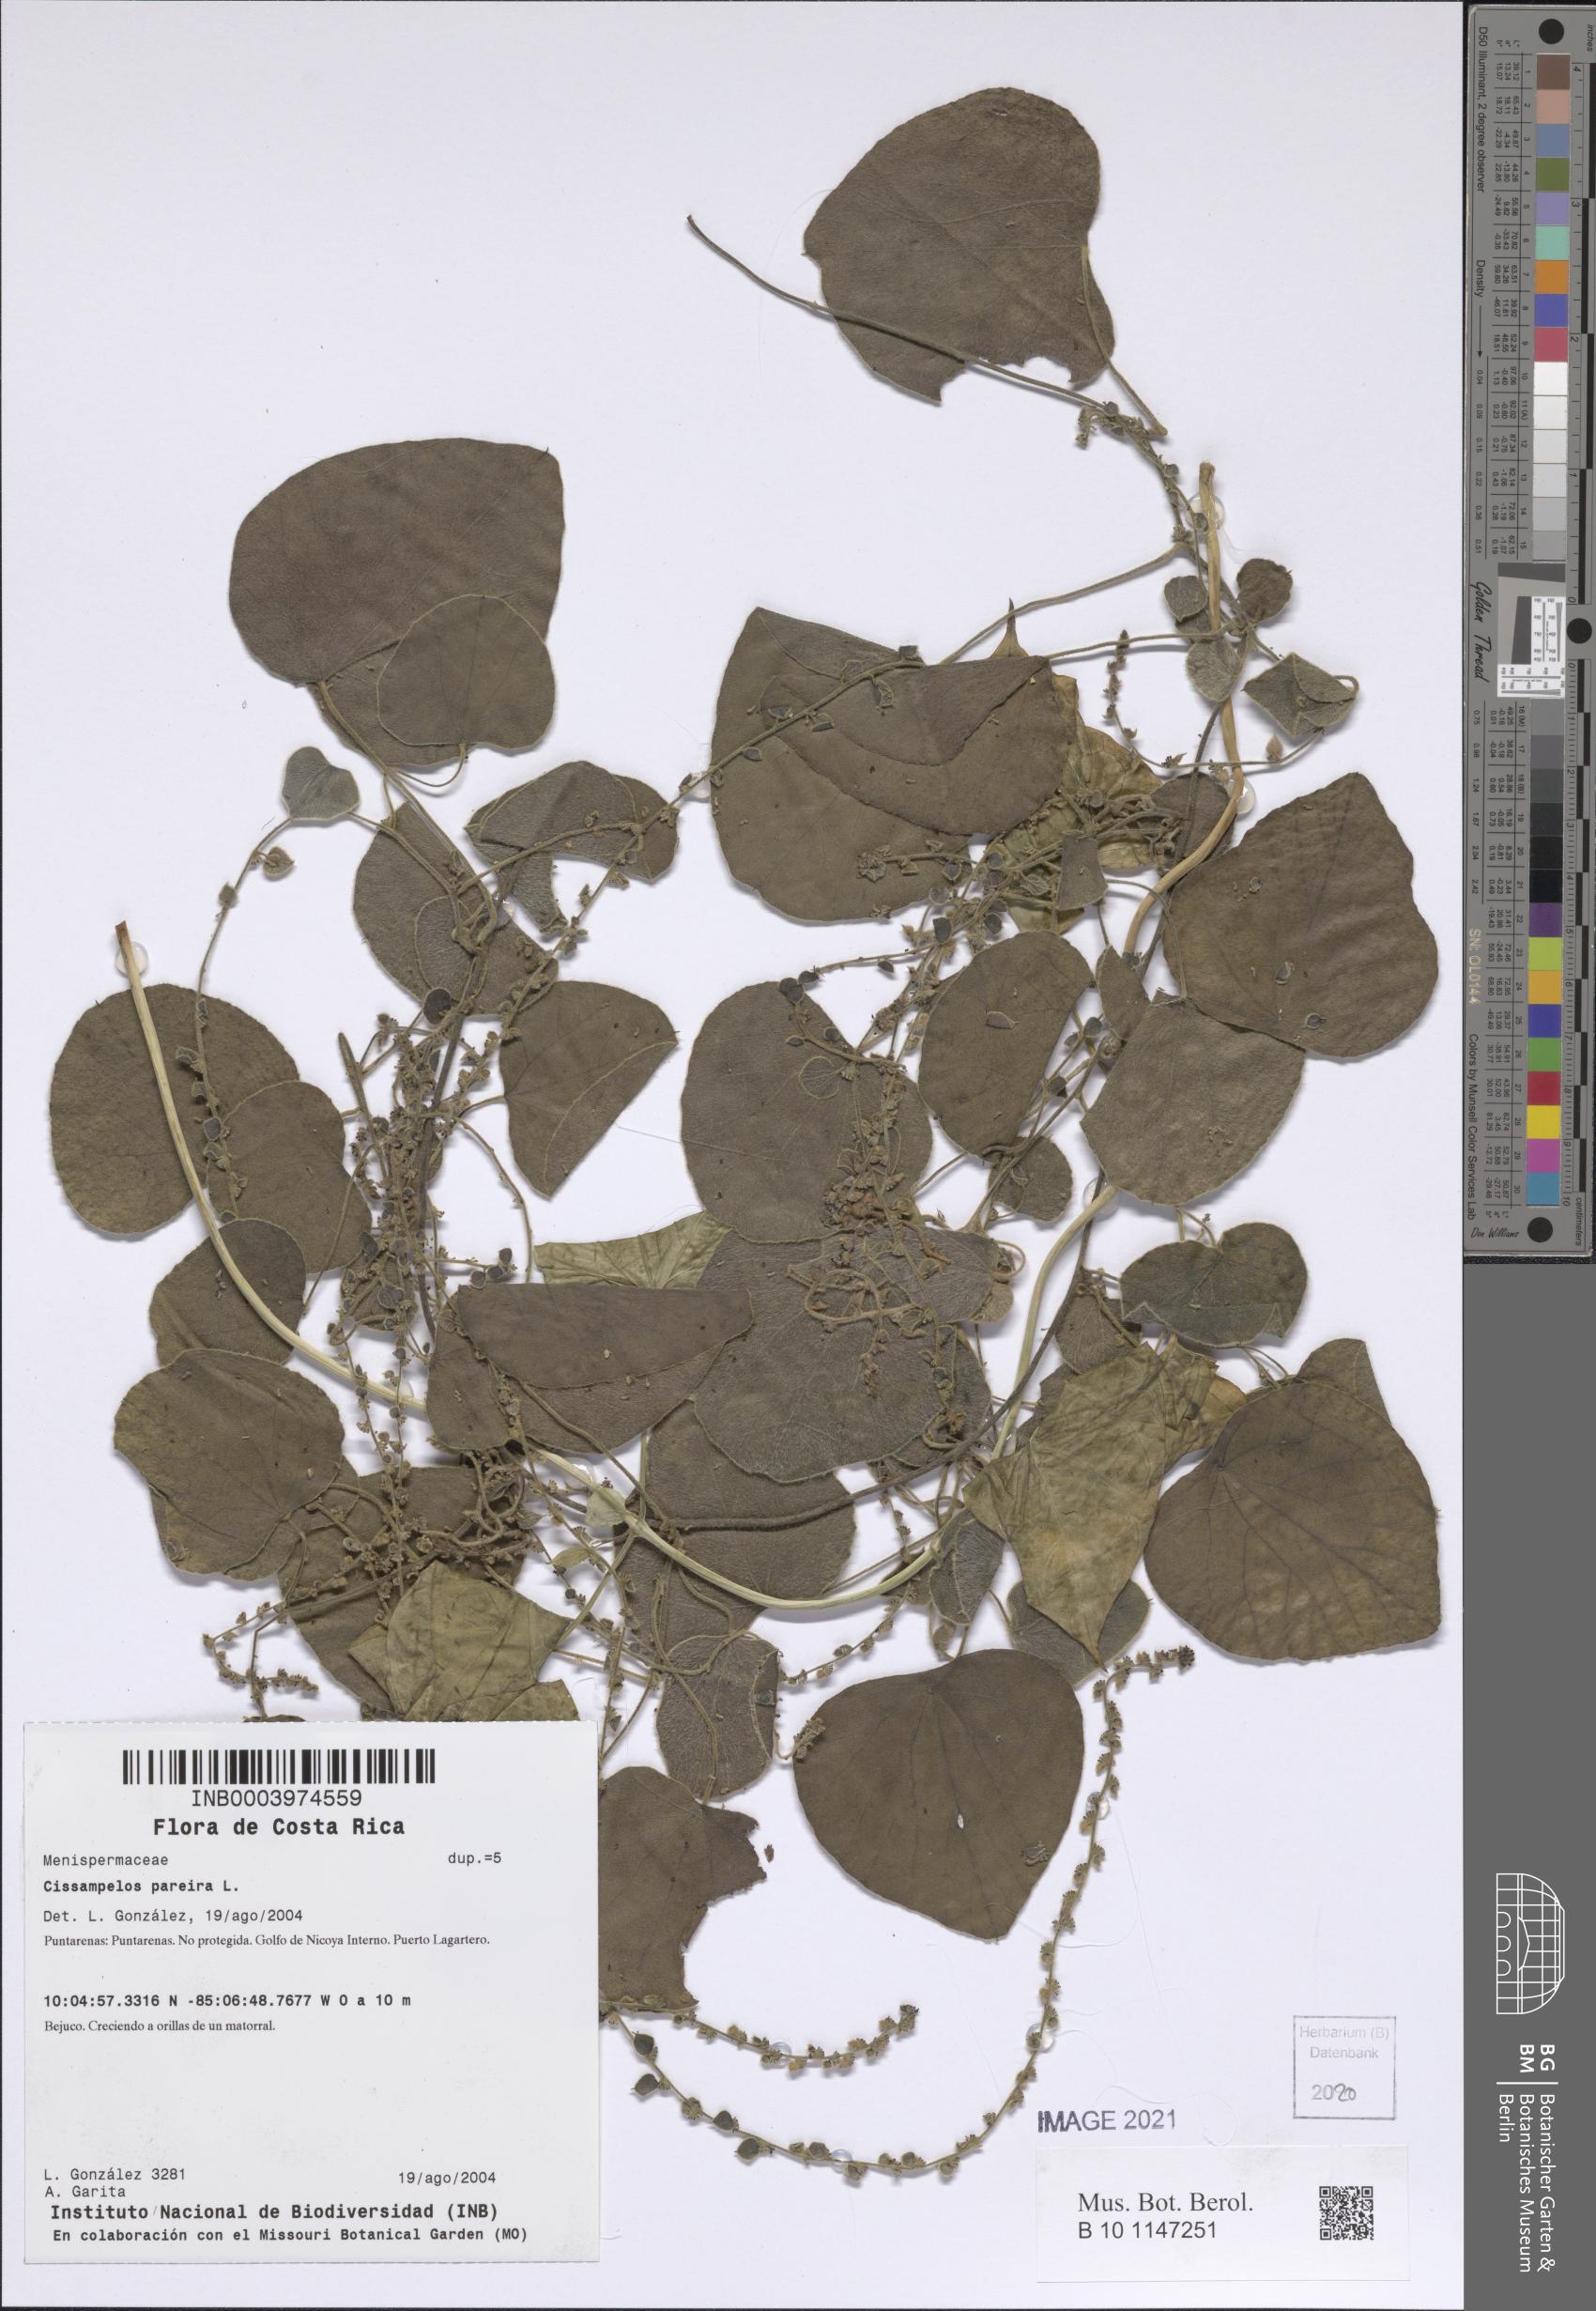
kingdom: Plantae
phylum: Tracheophyta
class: Magnoliopsida
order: Ranunculales
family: Menispermaceae
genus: Cissampelos
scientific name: Cissampelos pareira
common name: Velvetleaf
